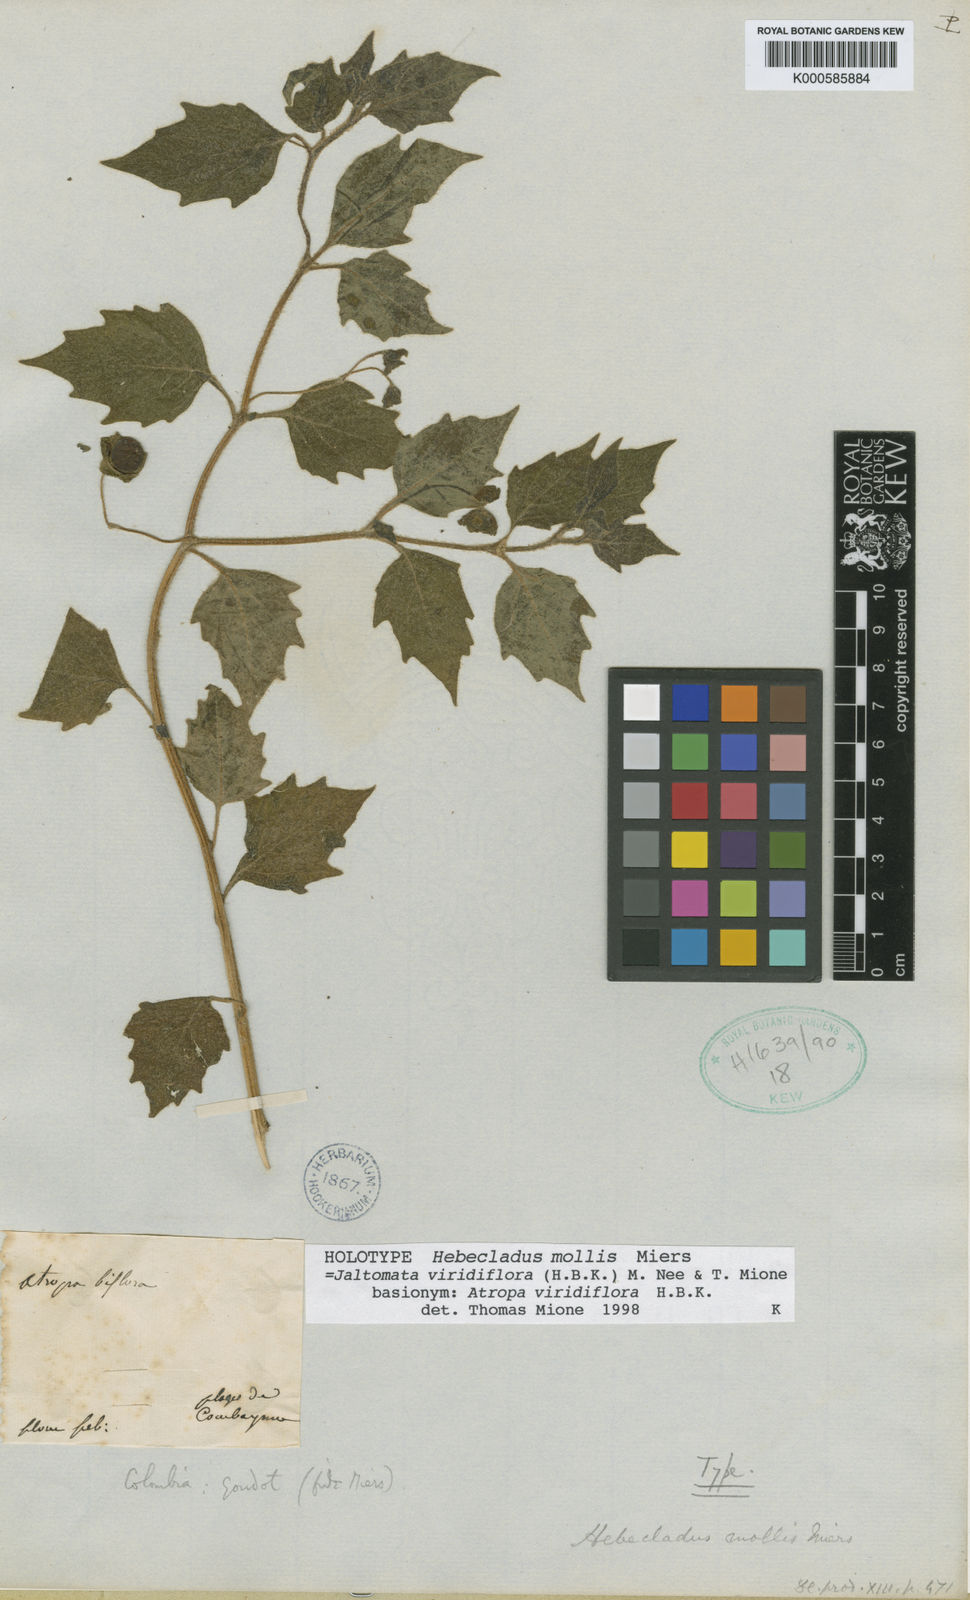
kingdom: Plantae
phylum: Tracheophyta
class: Magnoliopsida
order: Solanales
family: Solanaceae
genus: Jaltomata
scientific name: Jaltomata
